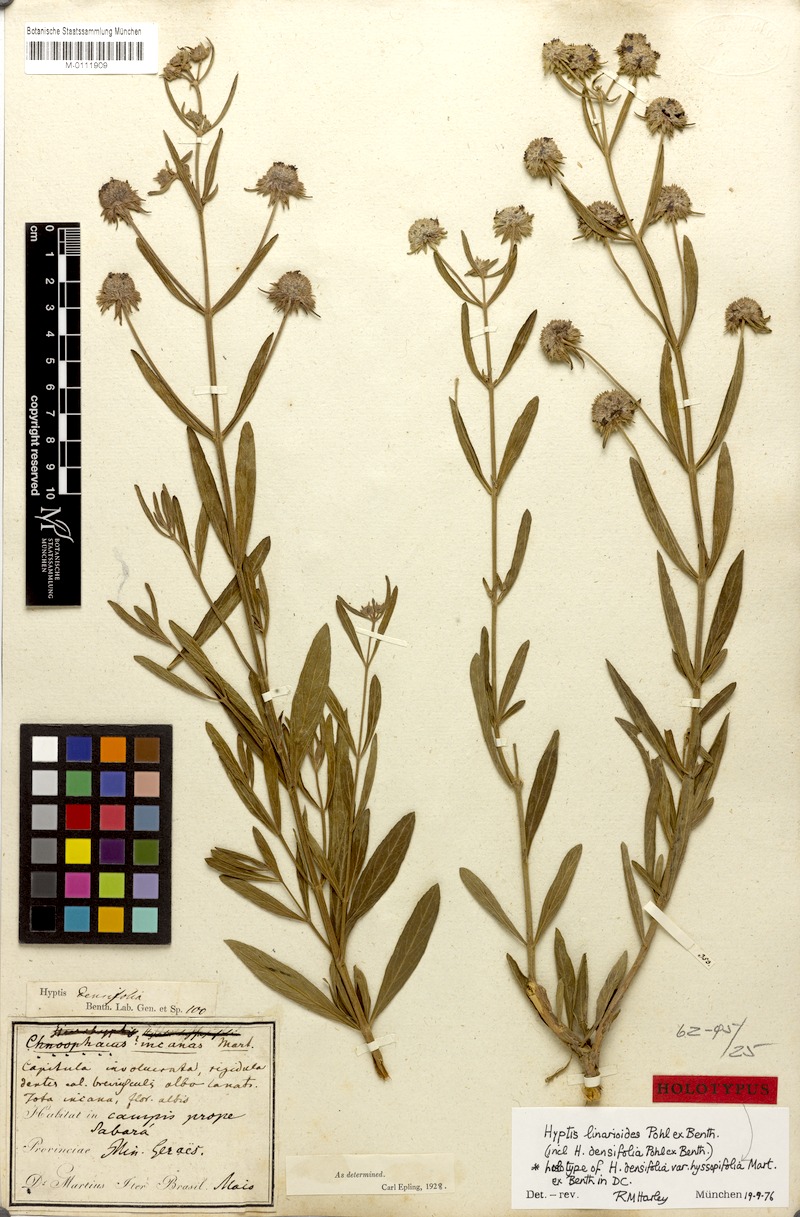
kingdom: Plantae
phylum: Tracheophyta
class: Magnoliopsida
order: Lamiales
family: Lamiaceae
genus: Hyptis
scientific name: Hyptis linarioides
